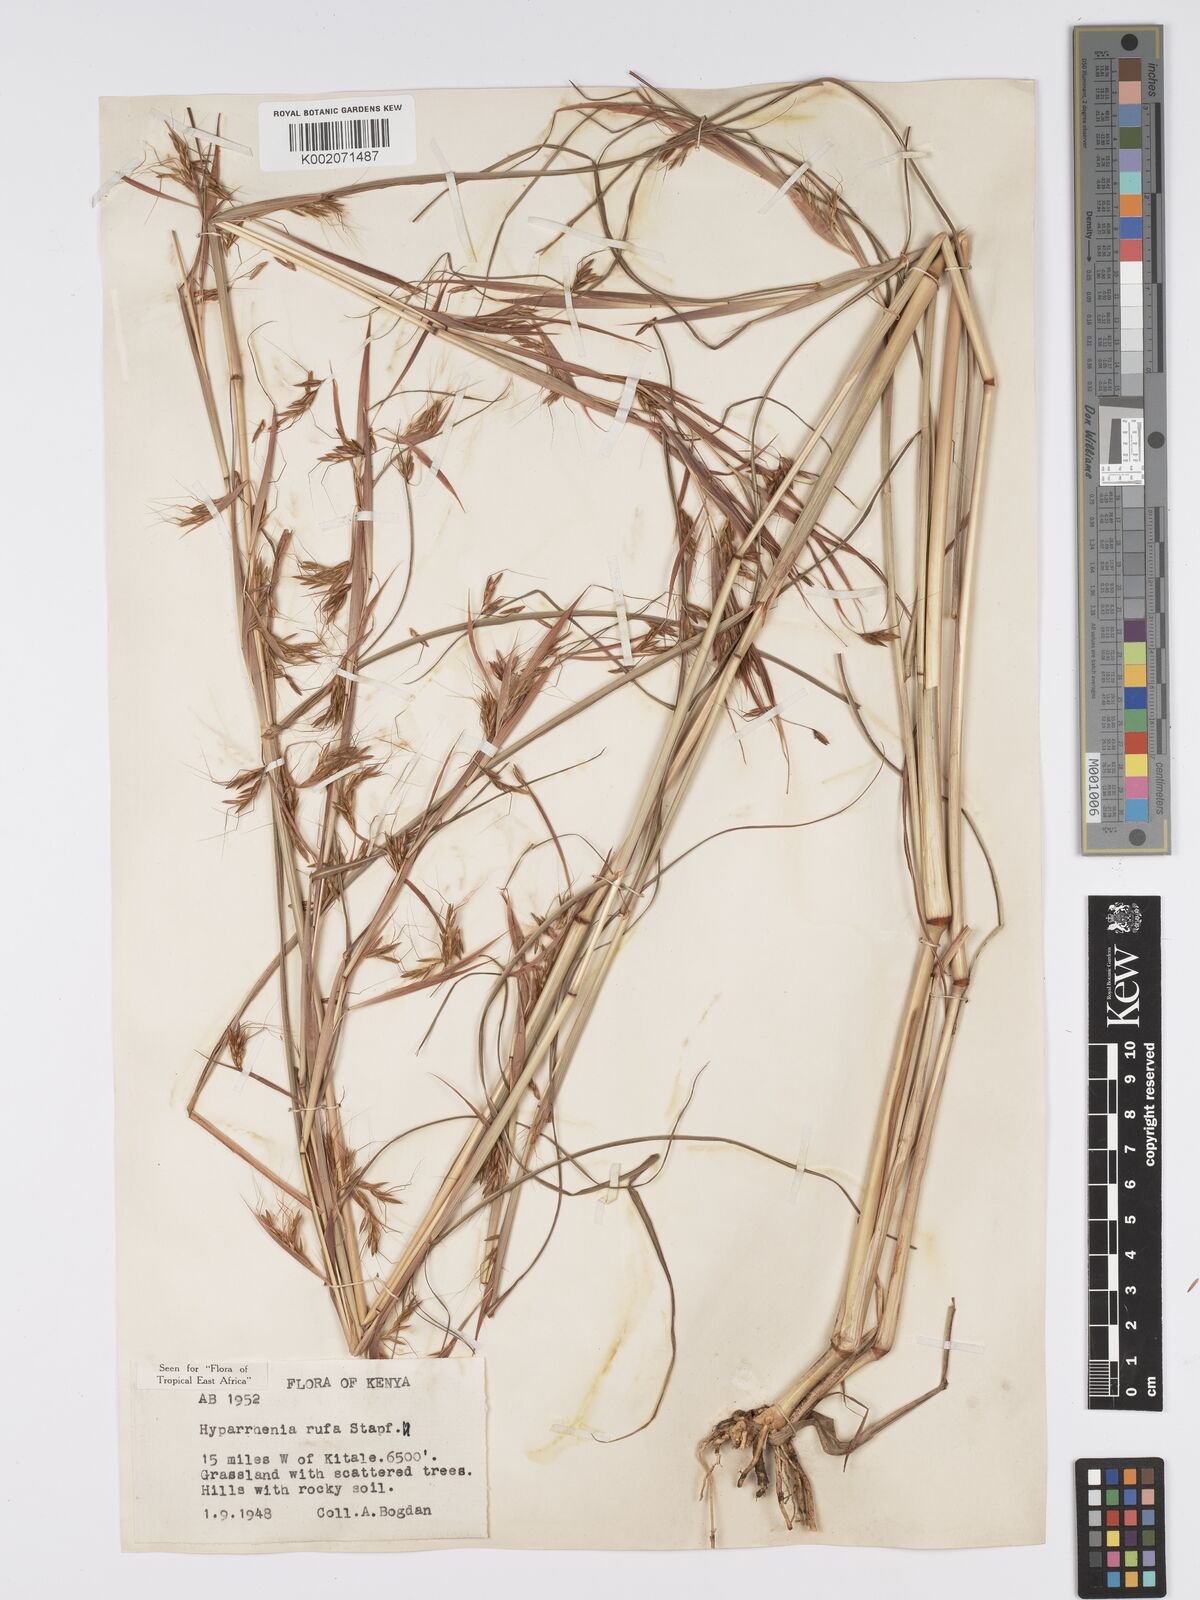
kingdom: Plantae
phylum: Tracheophyta
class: Liliopsida
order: Poales
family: Poaceae
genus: Hyparrhenia
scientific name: Hyparrhenia rufa
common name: Jaraguagrass
